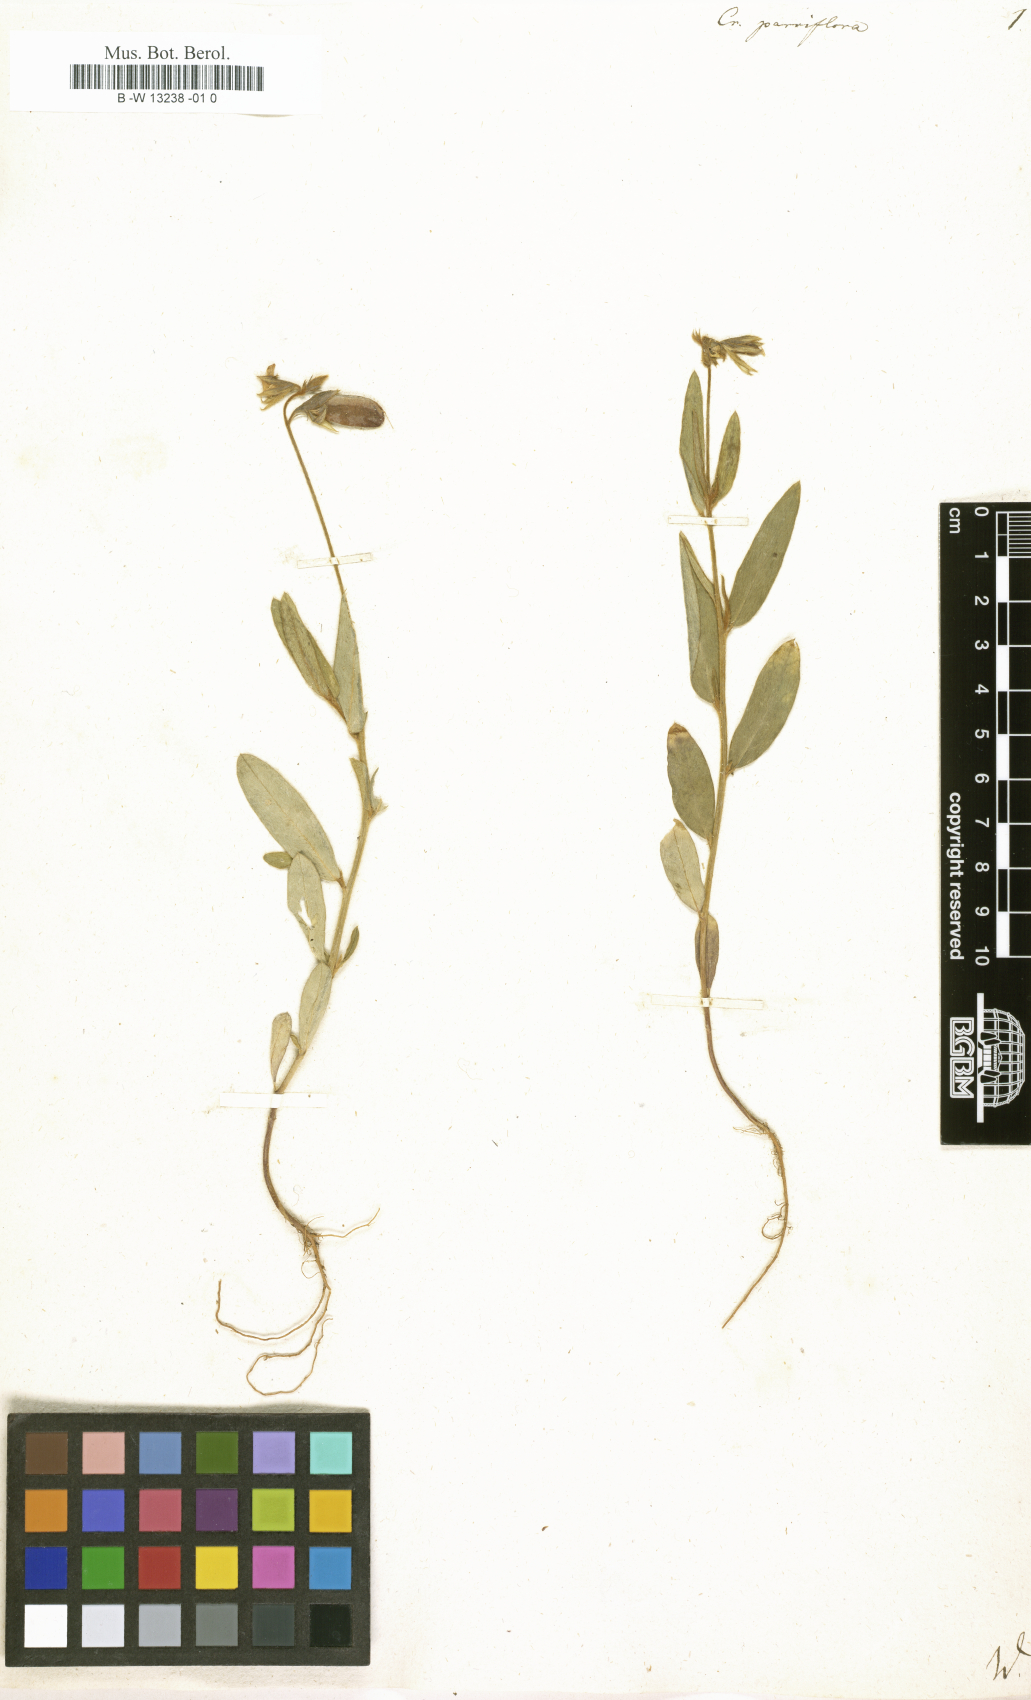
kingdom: Plantae
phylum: Tracheophyta
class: Magnoliopsida
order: Fabales
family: Fabaceae
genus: Crotalaria
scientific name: Crotalaria
